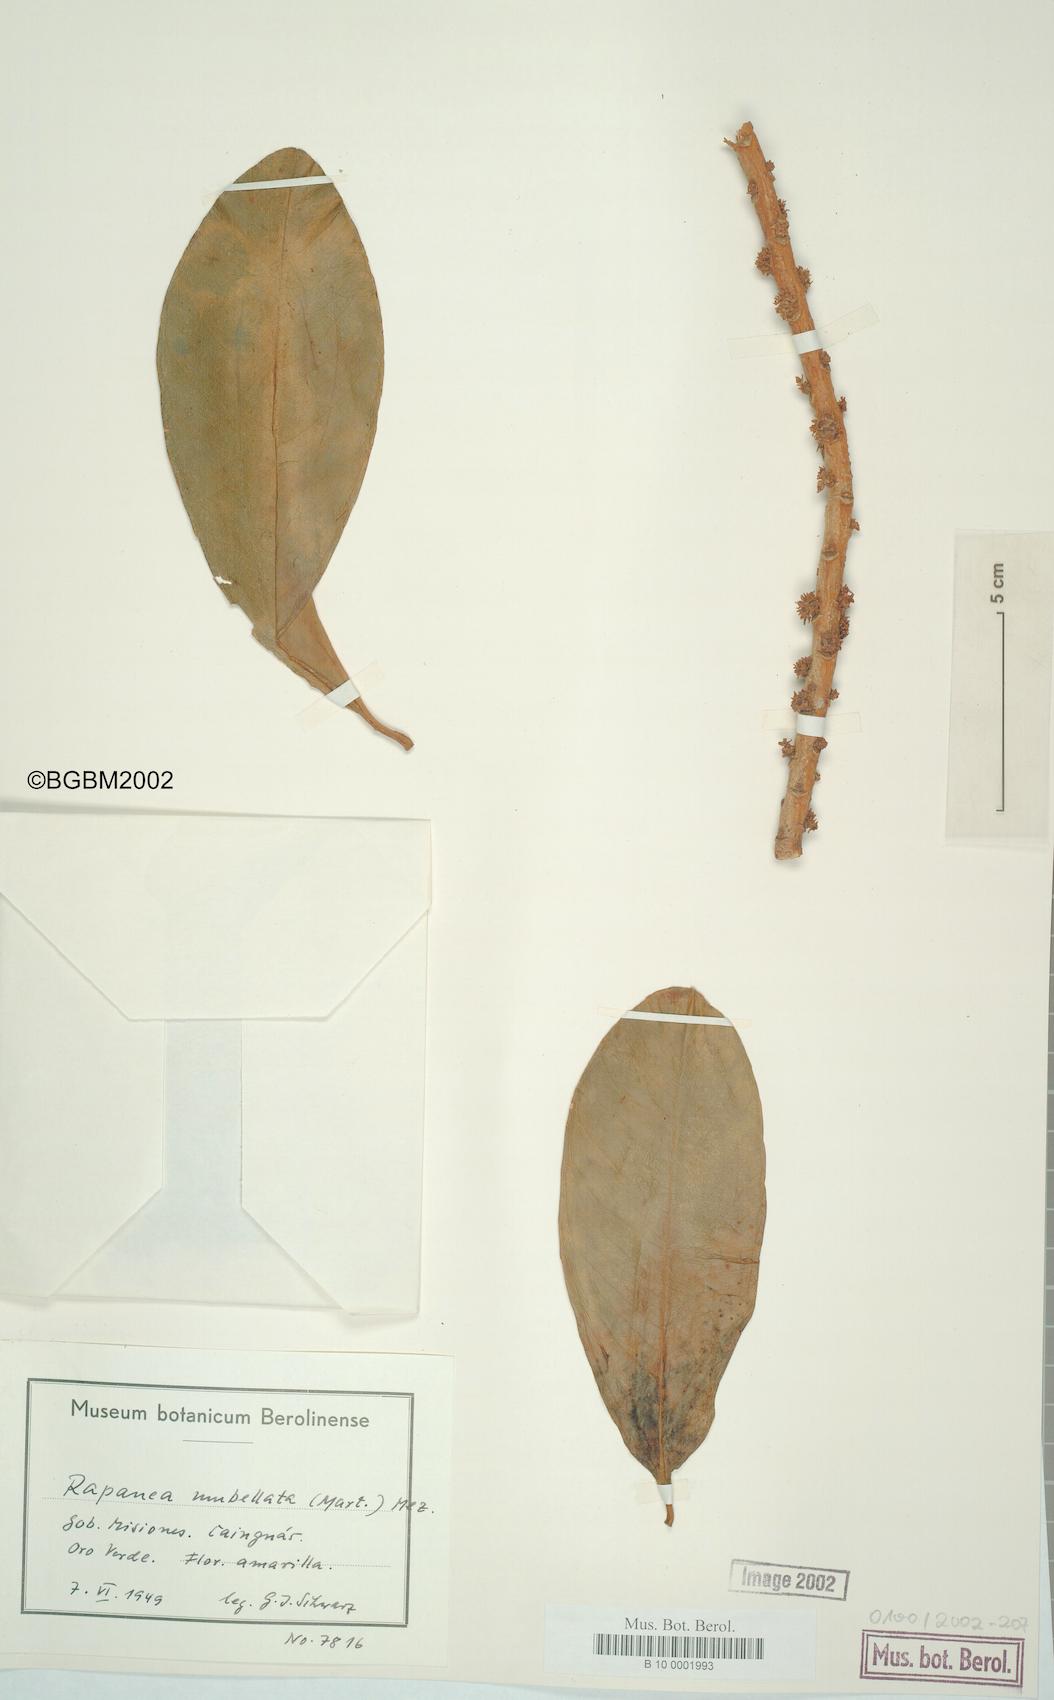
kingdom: Plantae
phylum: Tracheophyta
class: Magnoliopsida
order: Ericales
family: Primulaceae
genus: Myrsine
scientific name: Myrsine umbellata
